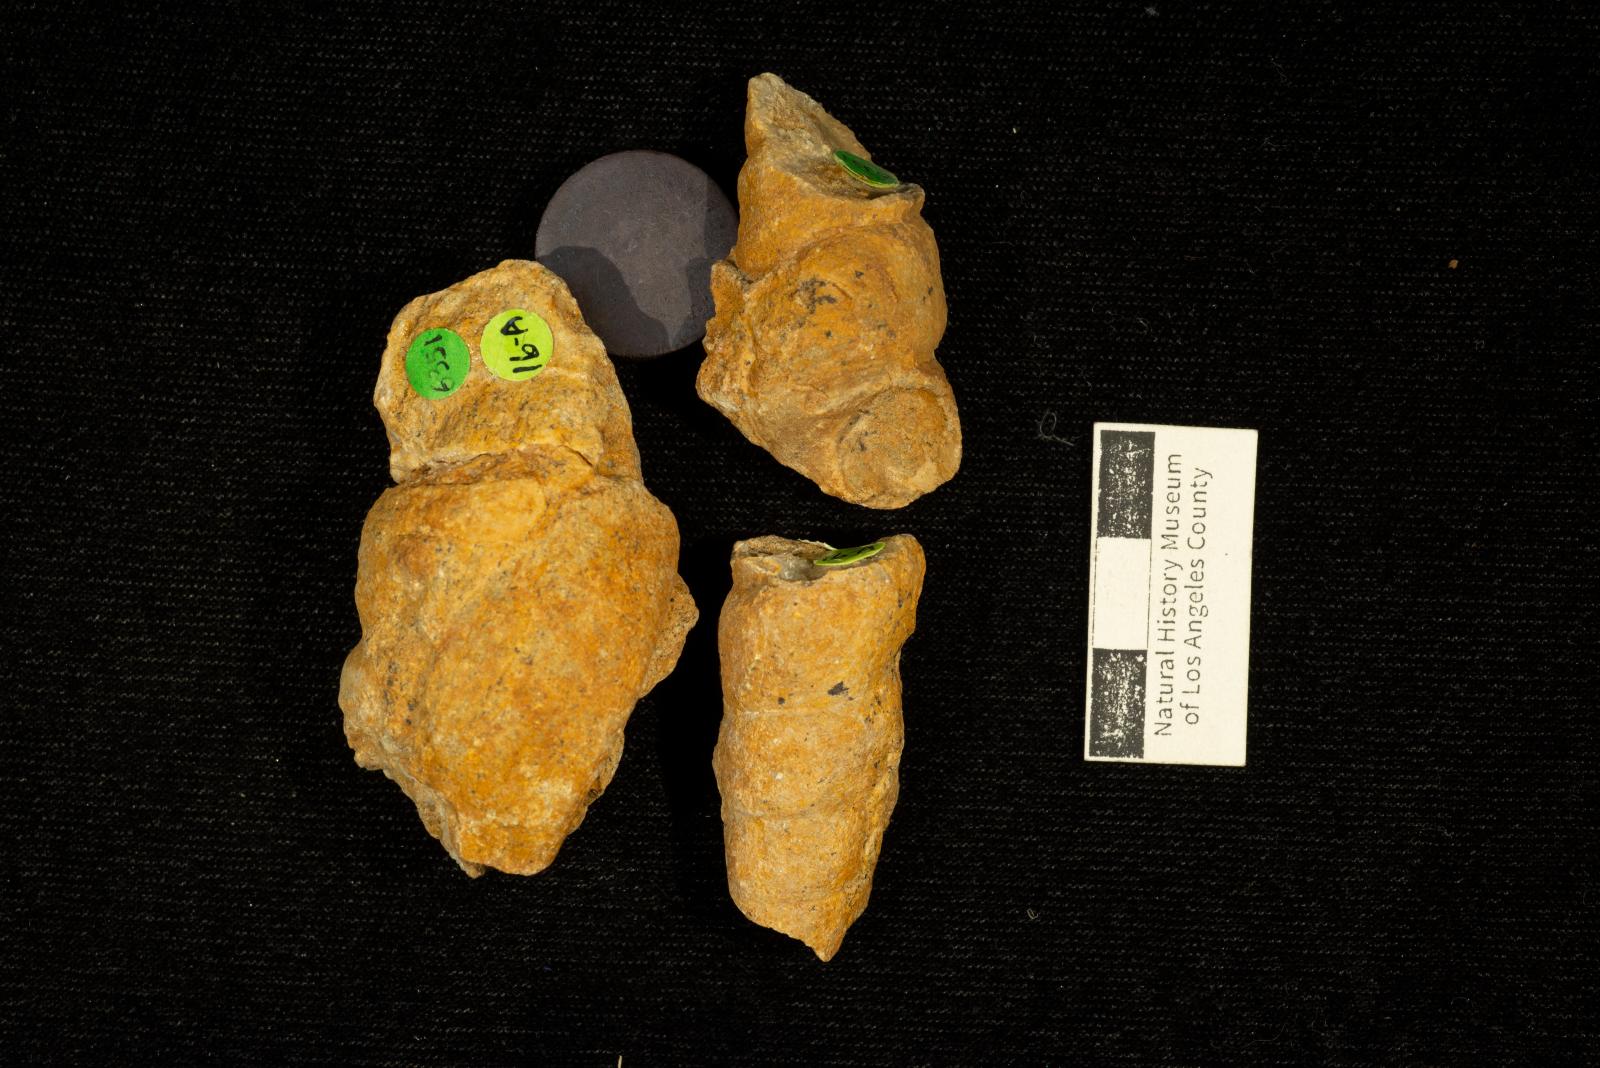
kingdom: Animalia
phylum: Mollusca
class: Gastropoda
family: Turritellidae
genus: Turritella
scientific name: Turritella chaneyi
